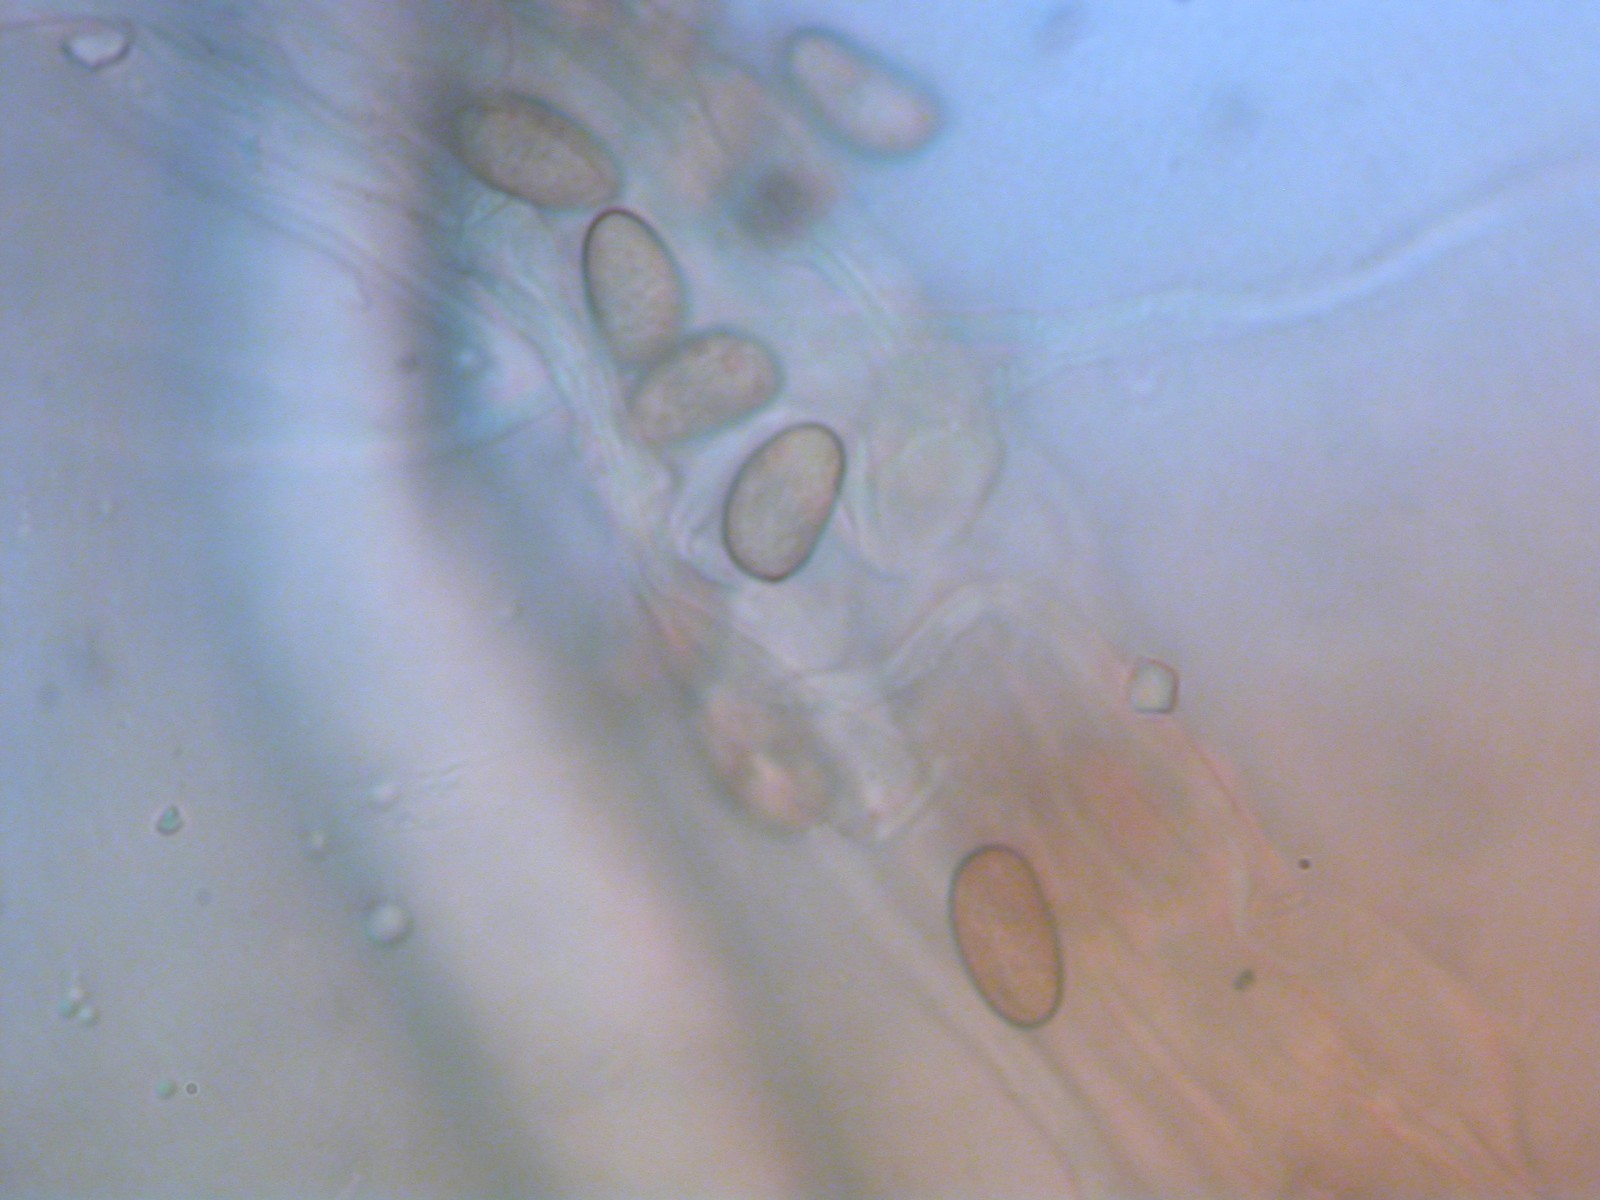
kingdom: Fungi
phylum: Basidiomycota
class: Agaricomycetes
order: Agaricales
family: Inocybaceae
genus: Inocybe
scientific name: Inocybe dulcamara
